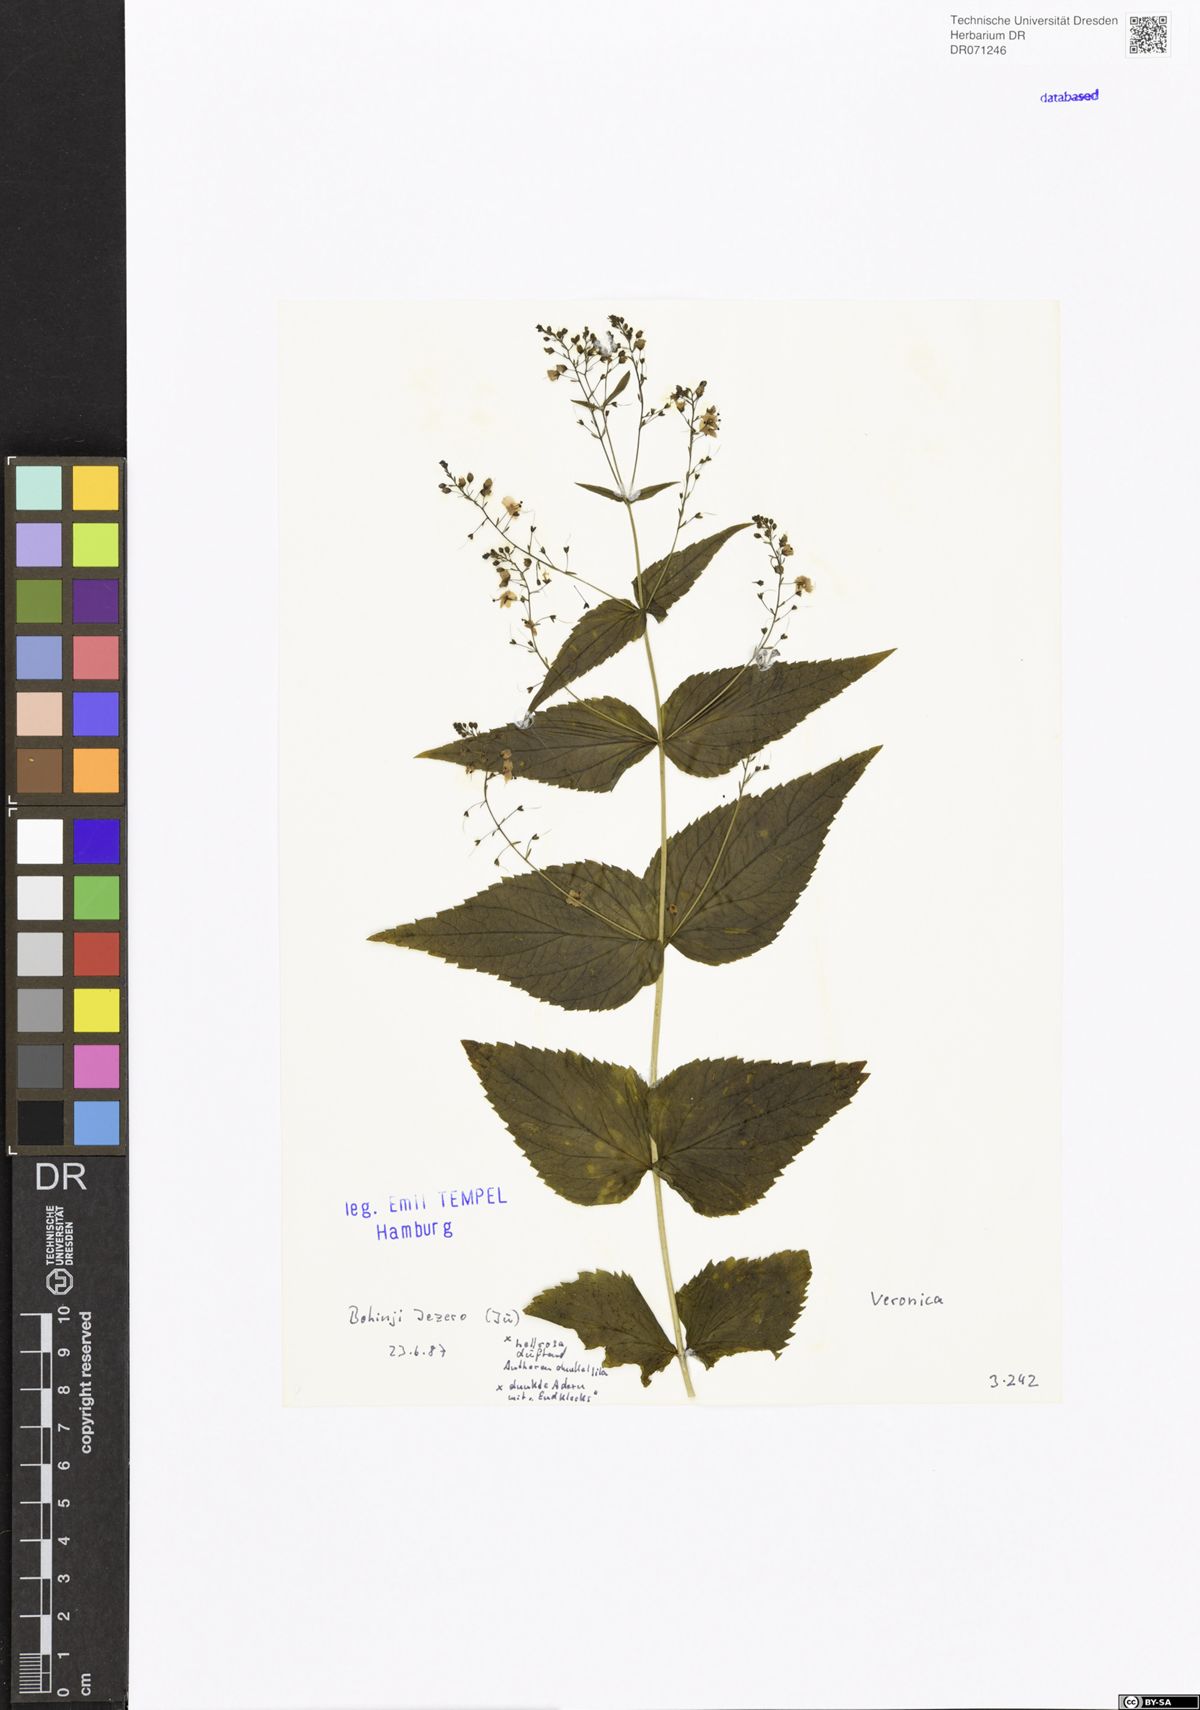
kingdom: Plantae
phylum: Tracheophyta
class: Magnoliopsida
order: Lamiales
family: Plantaginaceae
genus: Veronica
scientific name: Veronica
